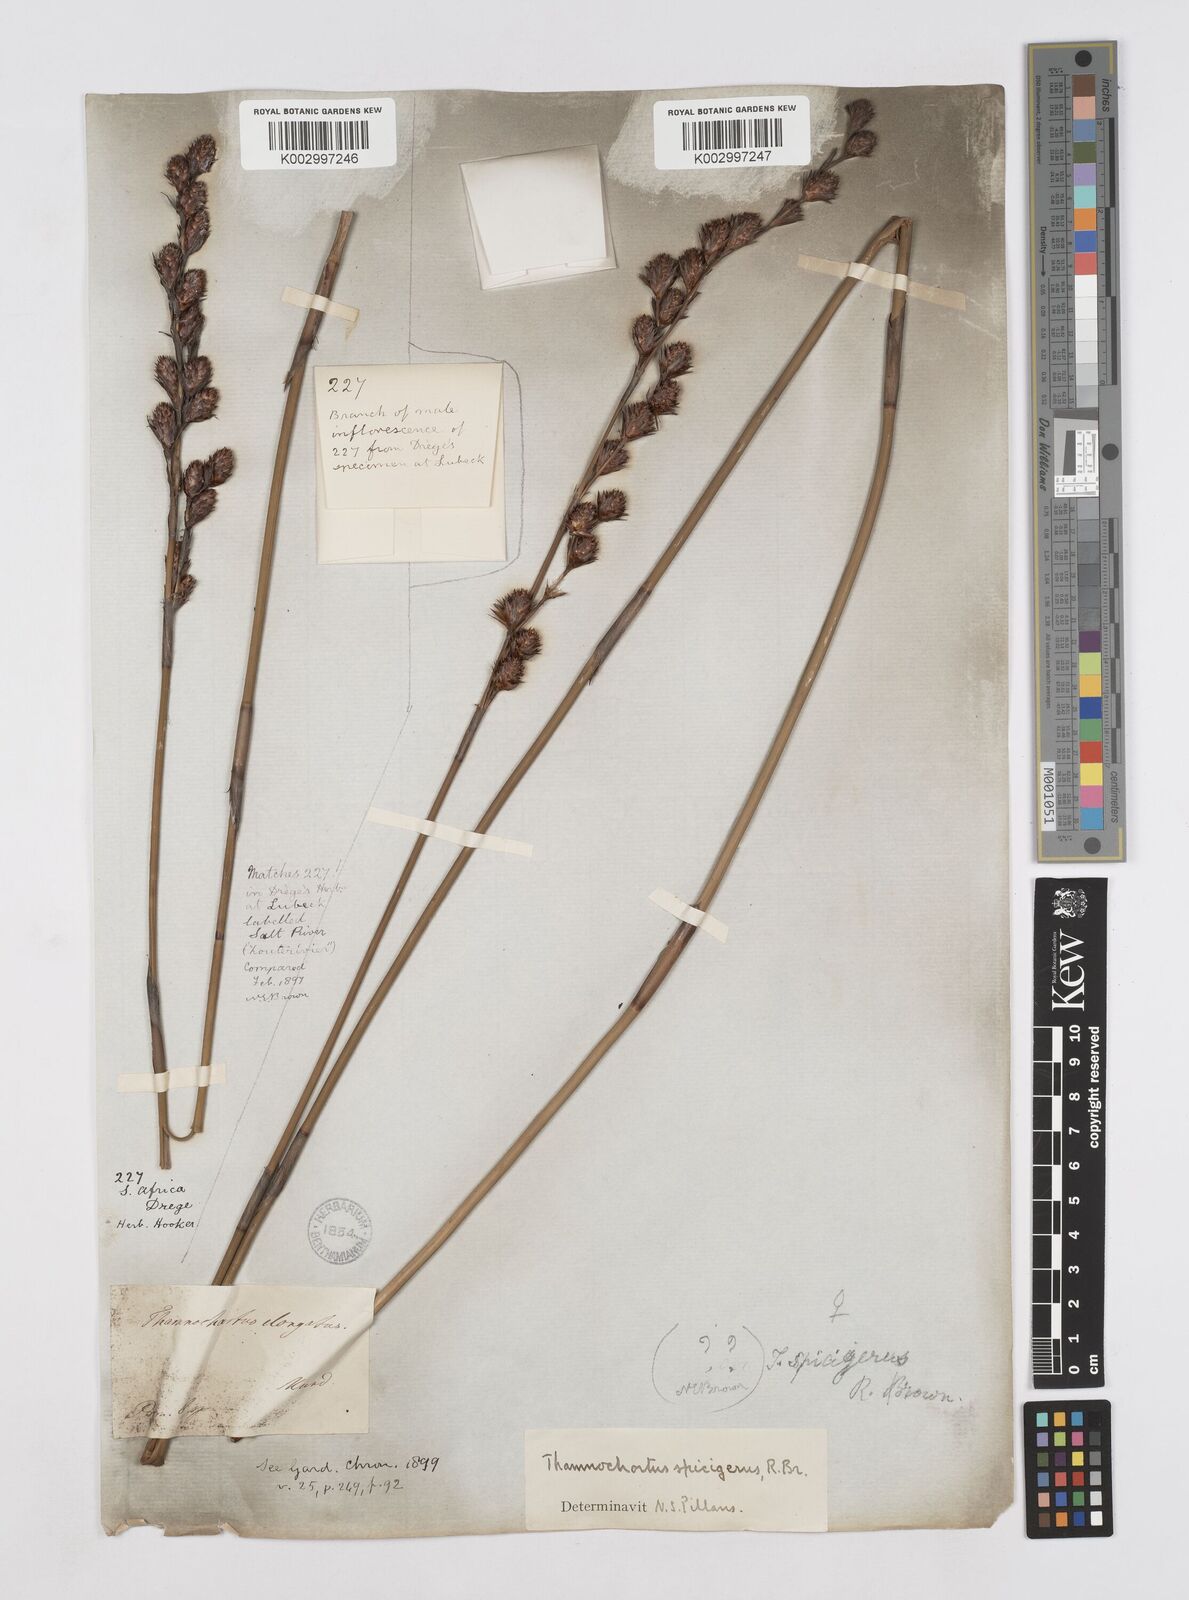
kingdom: Plantae
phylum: Tracheophyta
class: Liliopsida
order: Poales
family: Restionaceae
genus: Thamnochortus
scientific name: Thamnochortus spicigerus
